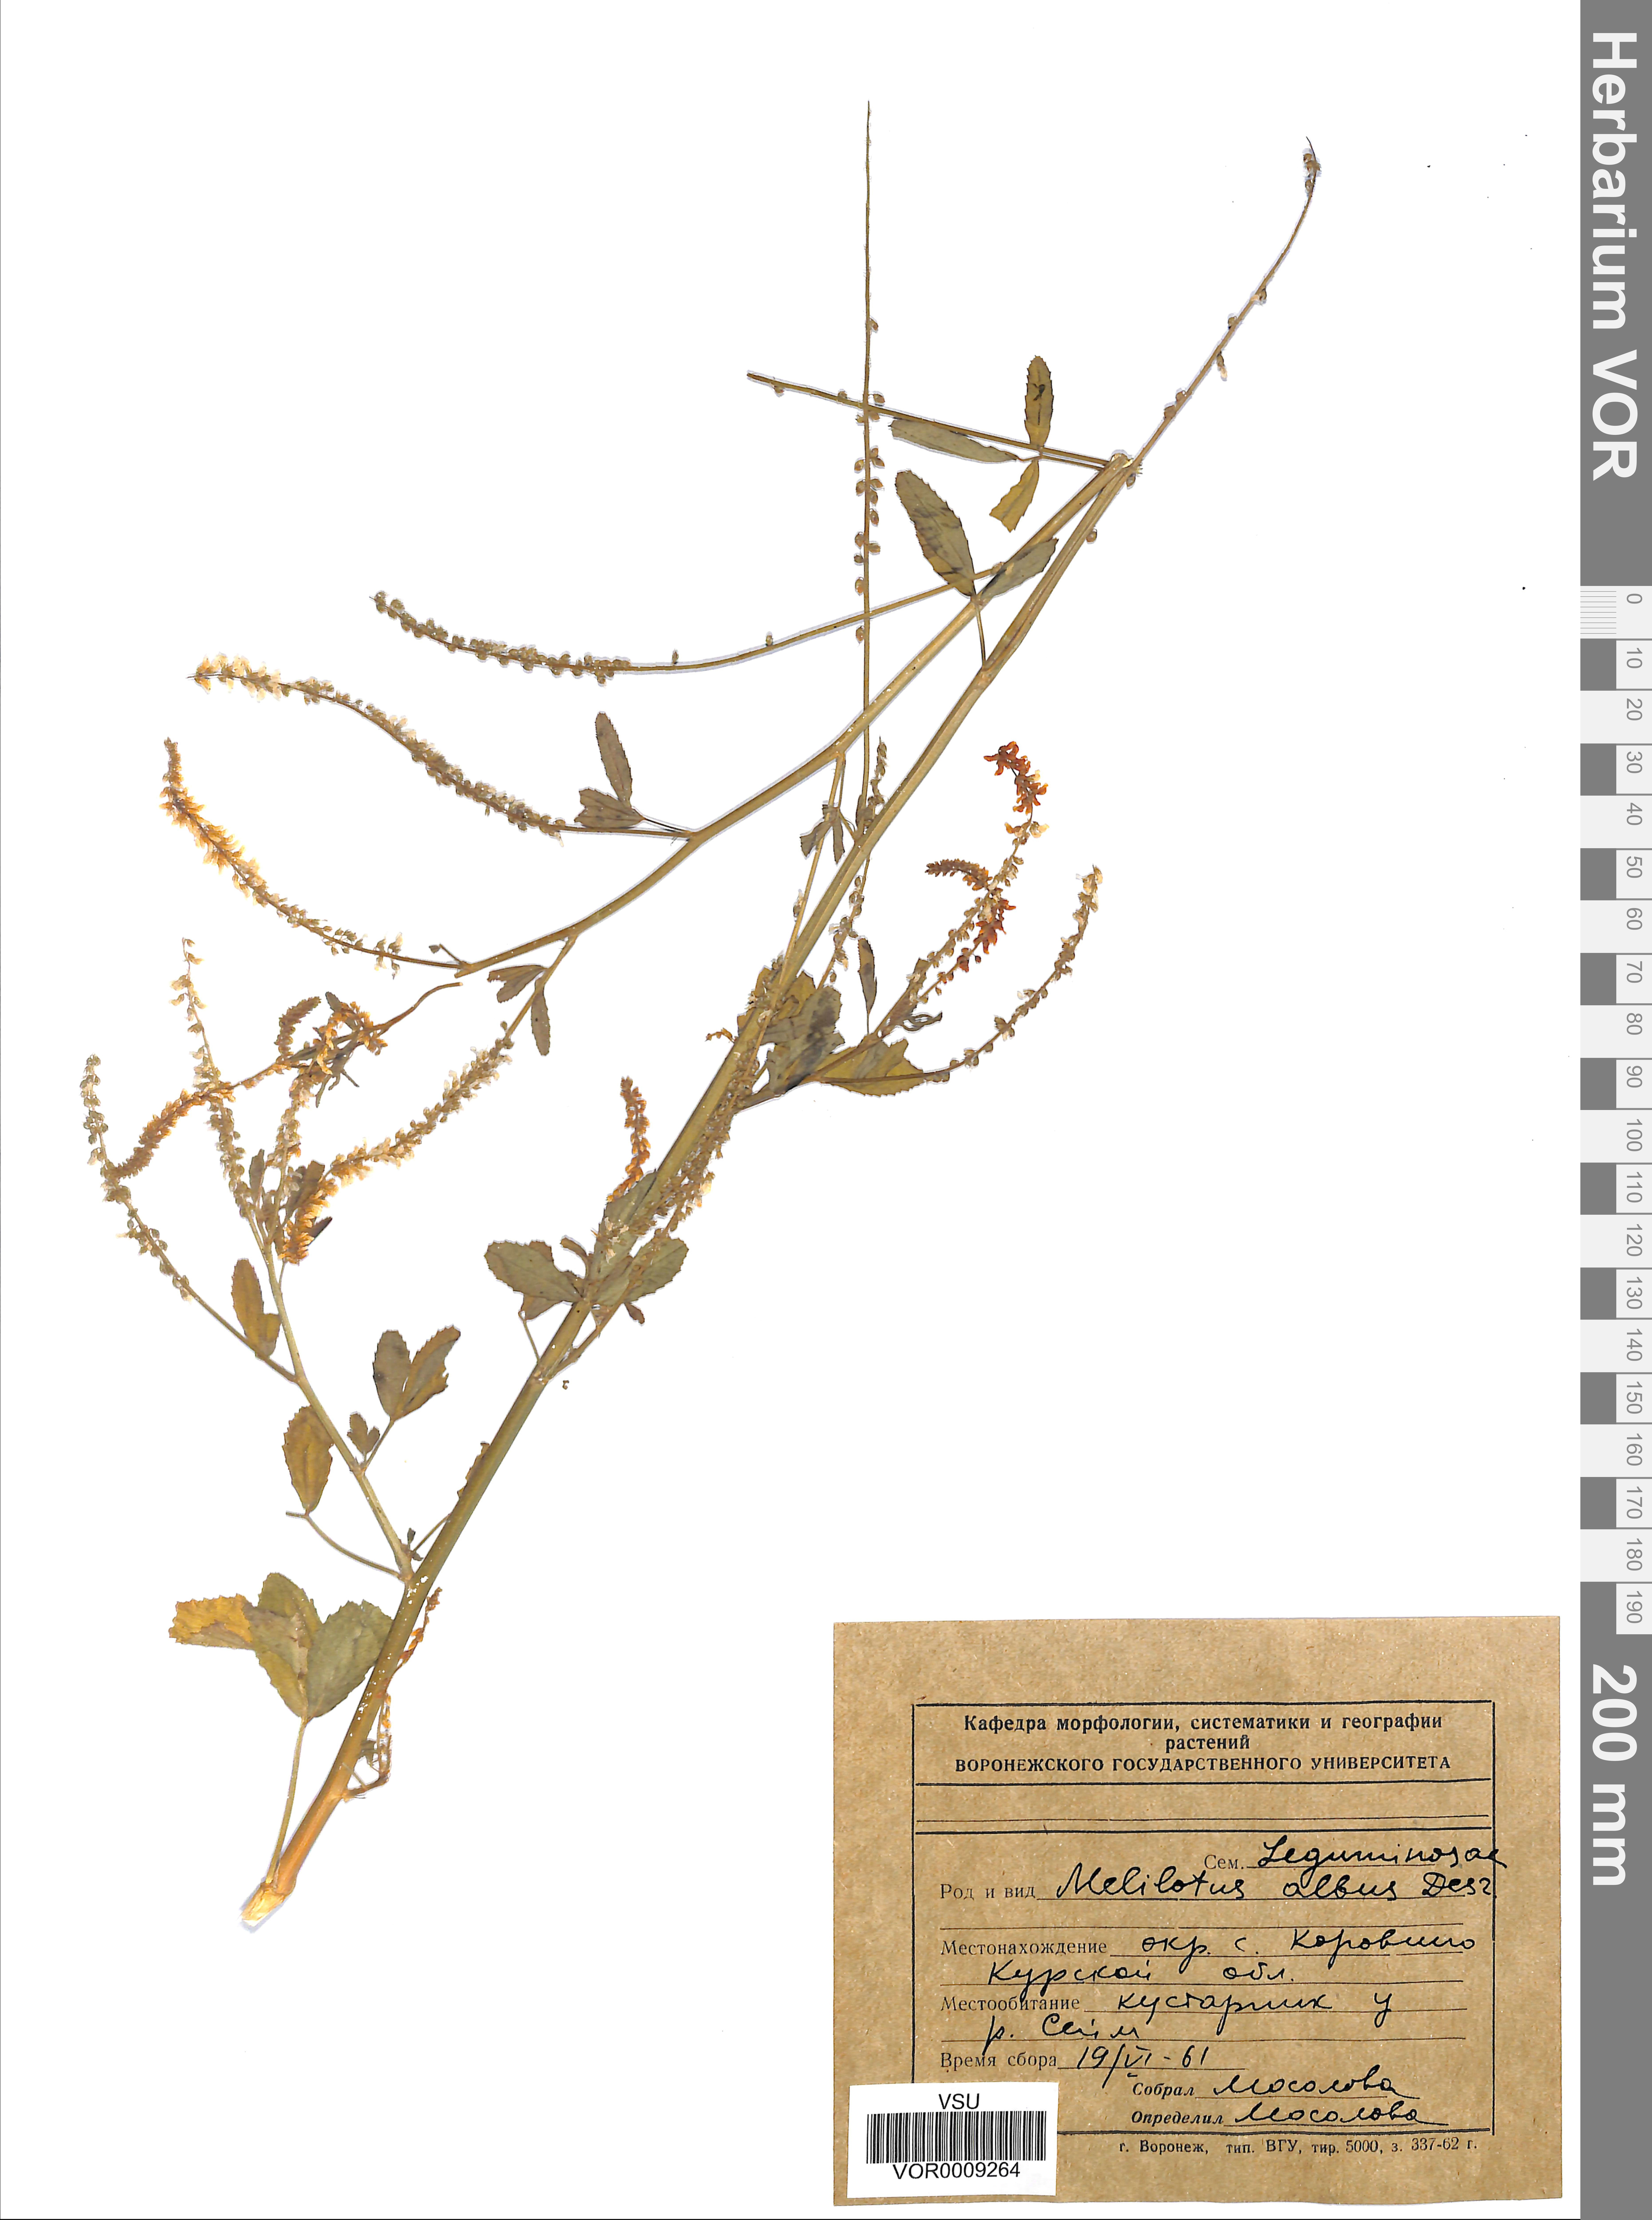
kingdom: Plantae
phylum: Tracheophyta
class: Magnoliopsida
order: Fabales
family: Fabaceae
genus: Melilotus
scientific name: Melilotus albus
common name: White melilot
